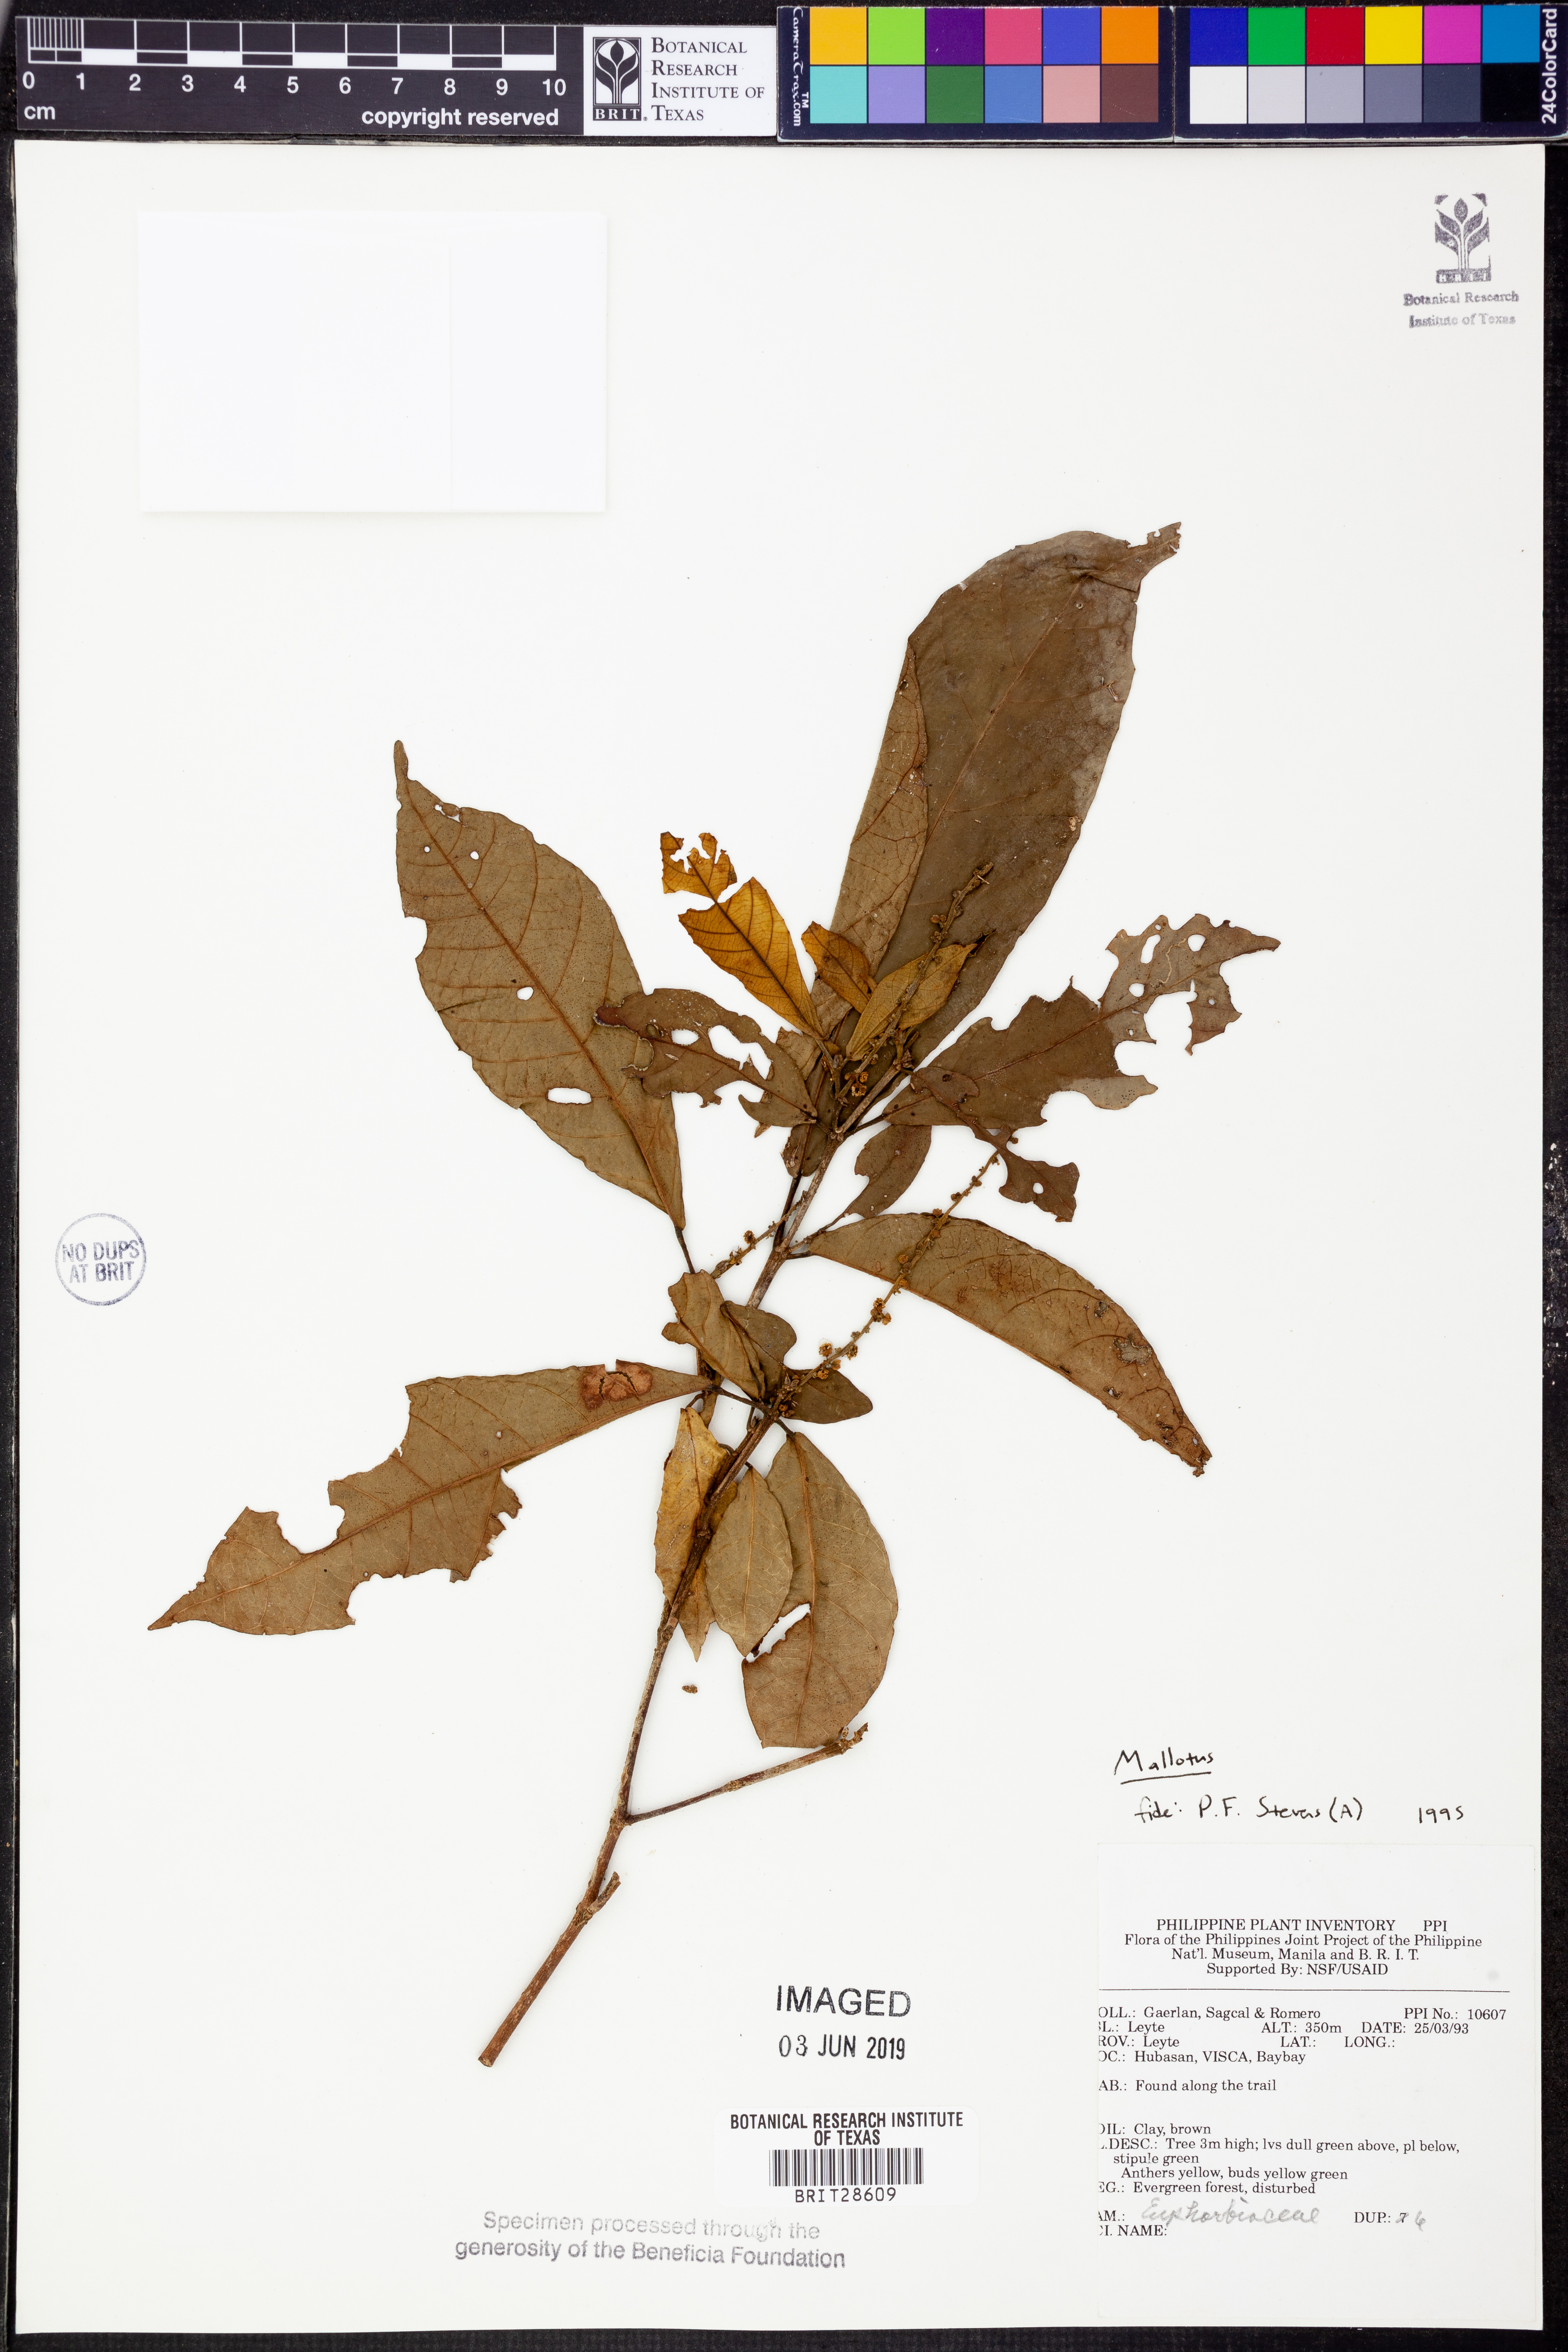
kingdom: Plantae
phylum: Tracheophyta
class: Magnoliopsida
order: Malpighiales
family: Euphorbiaceae
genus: Mallotus
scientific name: Mallotus
